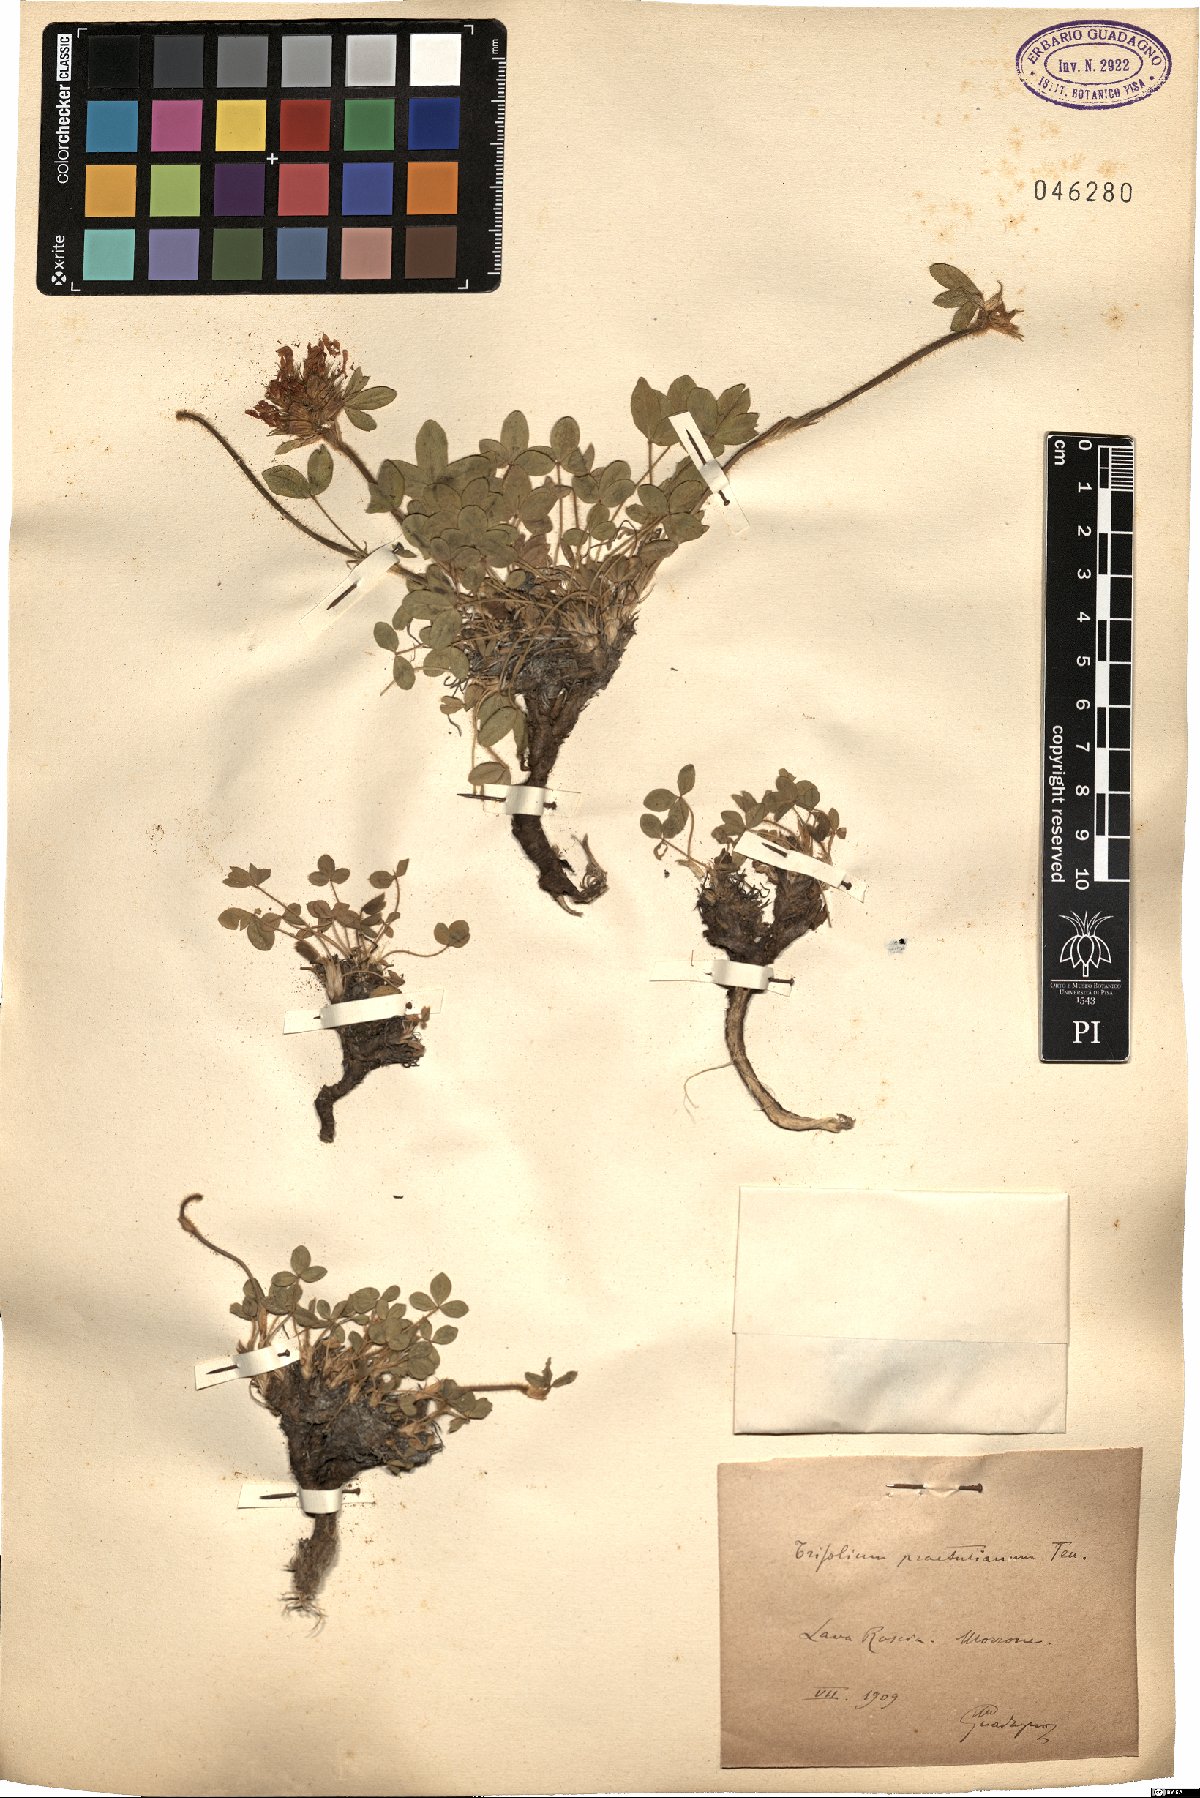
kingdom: Plantae
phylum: Tracheophyta
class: Magnoliopsida
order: Fabales
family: Fabaceae
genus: Trifolium
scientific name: Trifolium noricum
